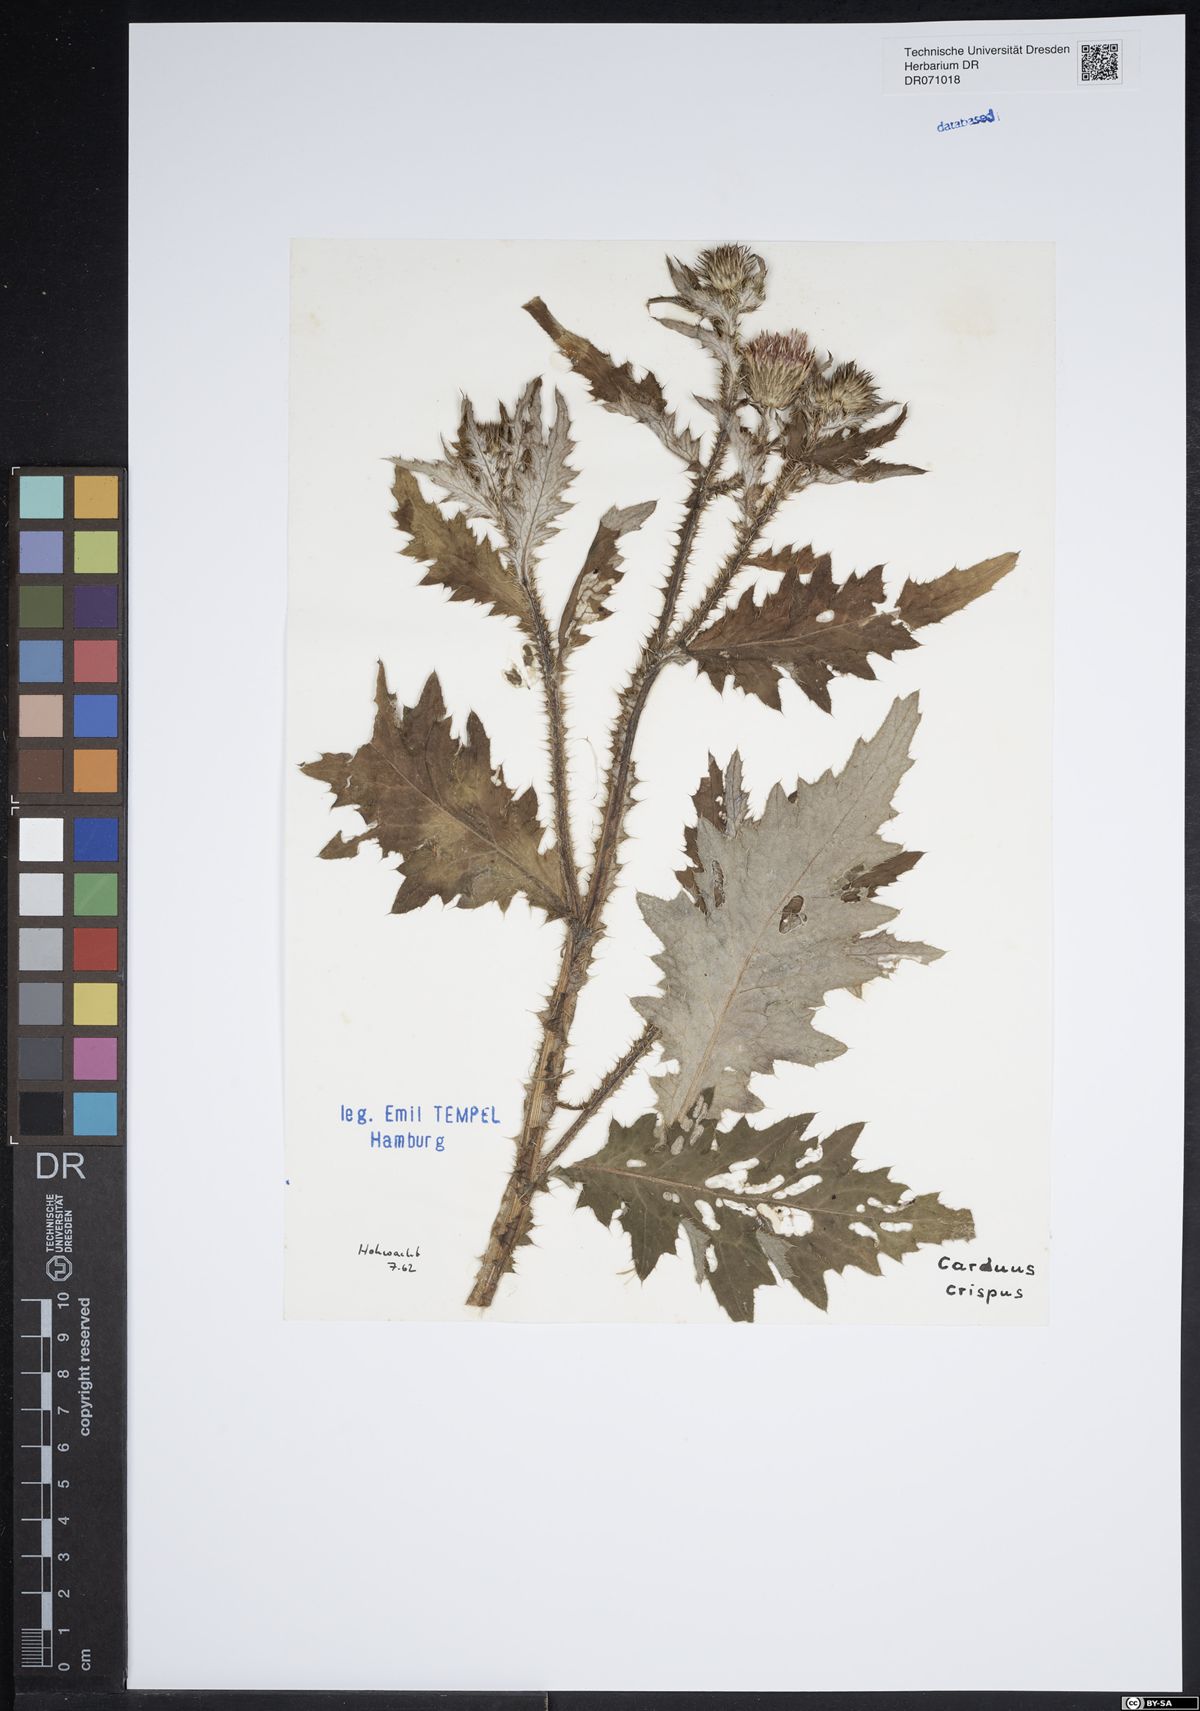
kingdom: Plantae
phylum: Tracheophyta
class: Magnoliopsida
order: Asterales
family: Asteraceae
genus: Carduus
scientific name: Carduus crispus
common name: Welted thistle
